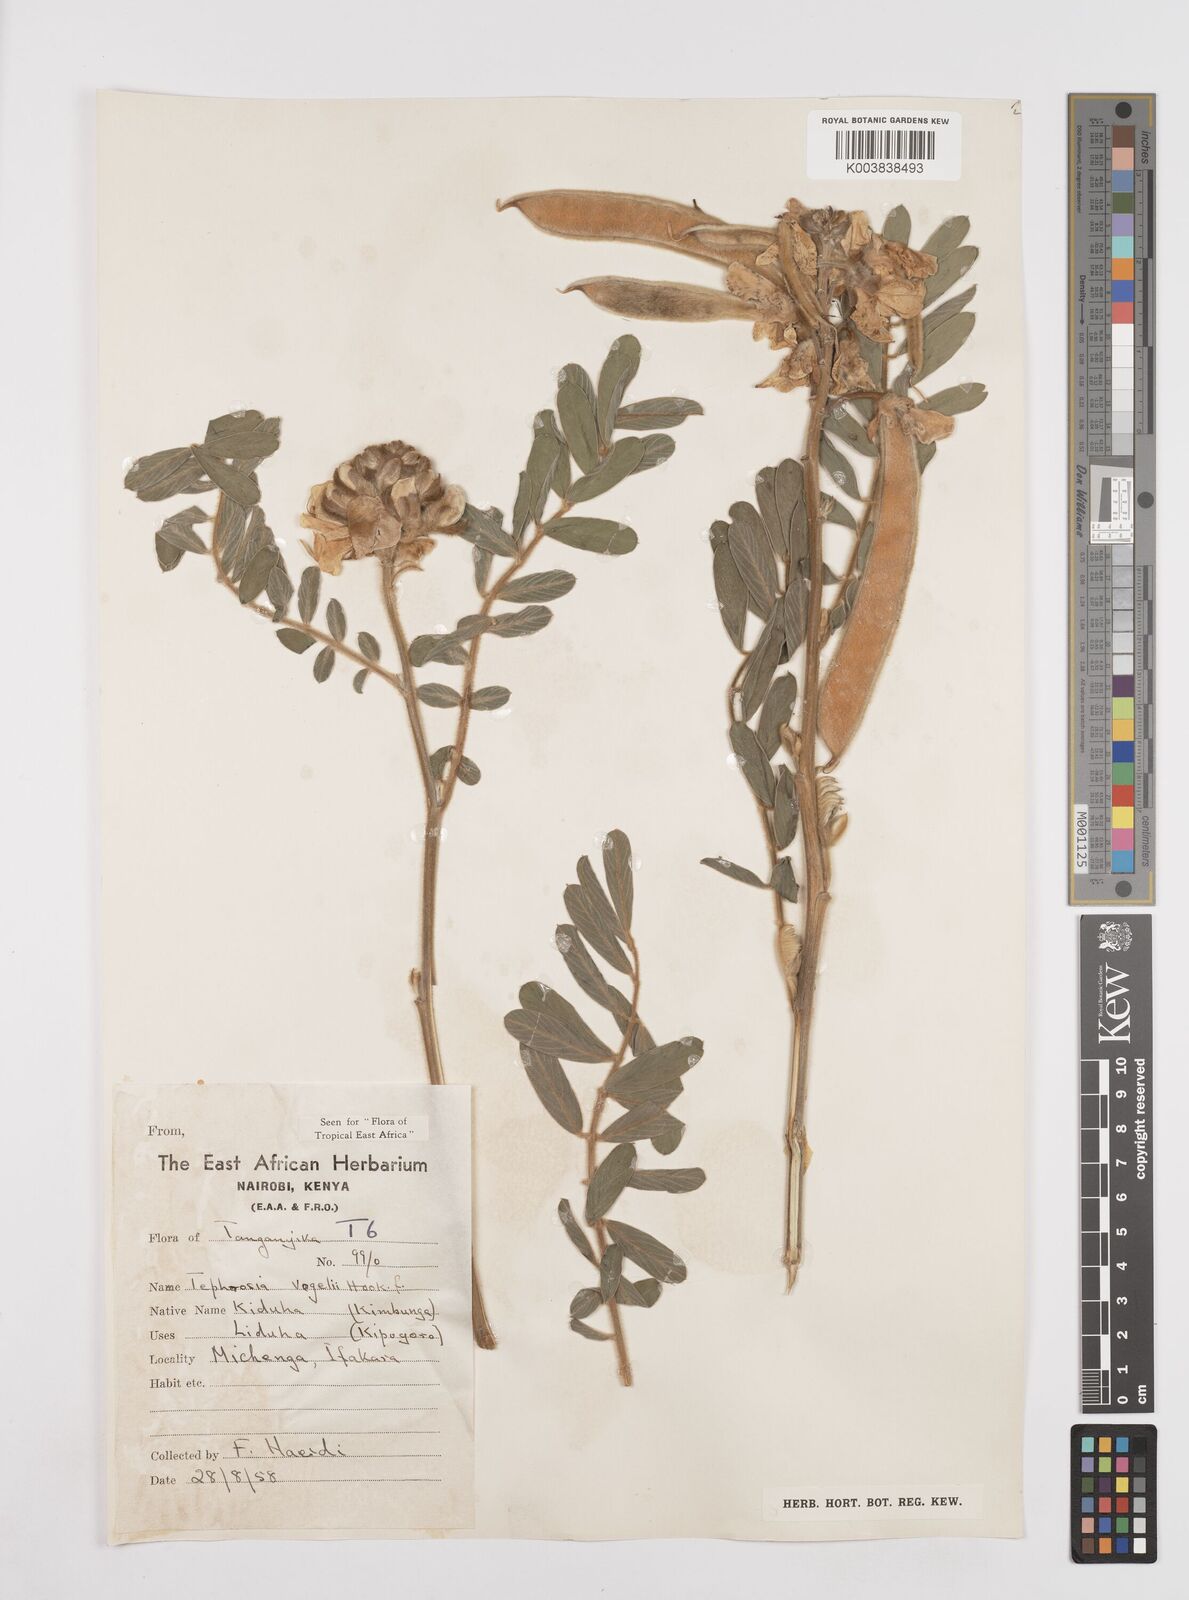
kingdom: Plantae
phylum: Tracheophyta
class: Magnoliopsida
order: Fabales
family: Fabaceae
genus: Tephrosia
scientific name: Tephrosia vogelii
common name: Vogel tephrosia
